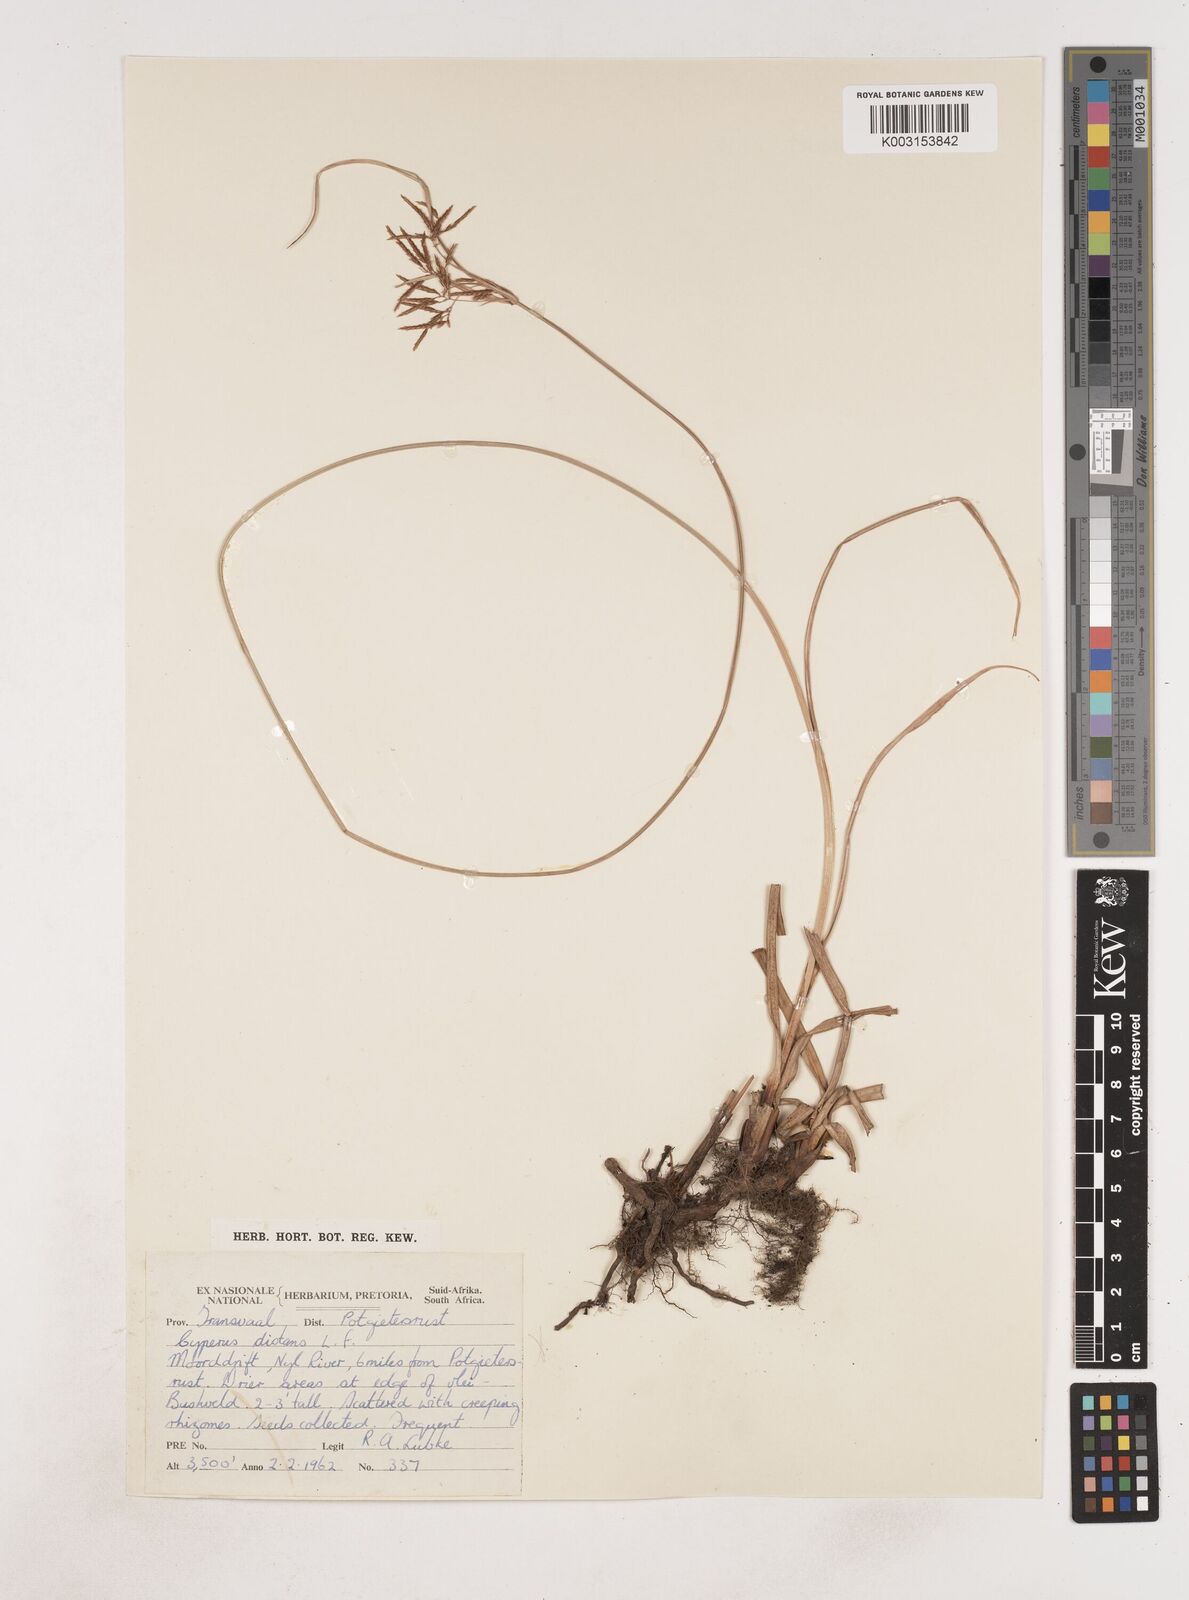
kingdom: Plantae
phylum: Tracheophyta
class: Liliopsida
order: Poales
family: Cyperaceae
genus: Cyperus
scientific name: Cyperus
